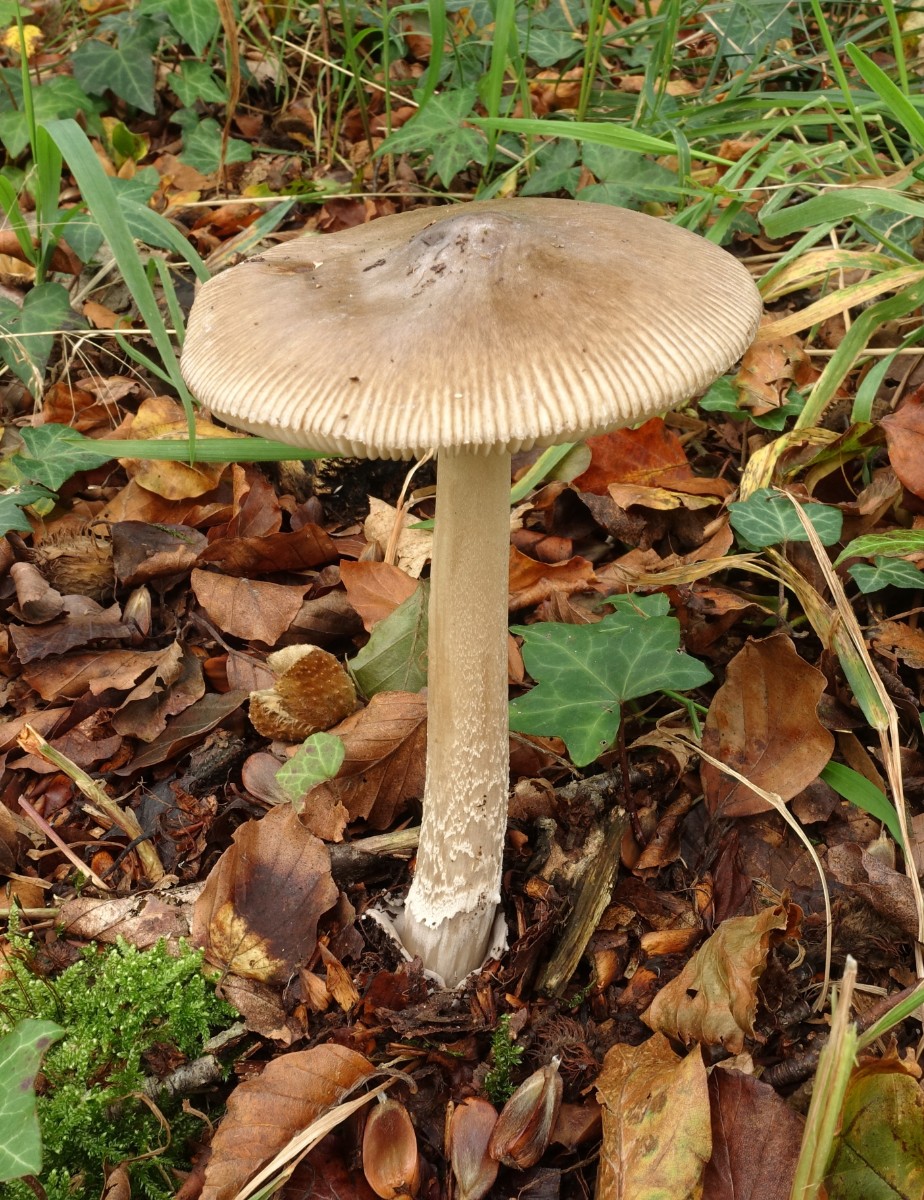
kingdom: Fungi
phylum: Basidiomycota
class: Agaricomycetes
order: Agaricales
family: Amanitaceae
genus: Amanita
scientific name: Amanita
